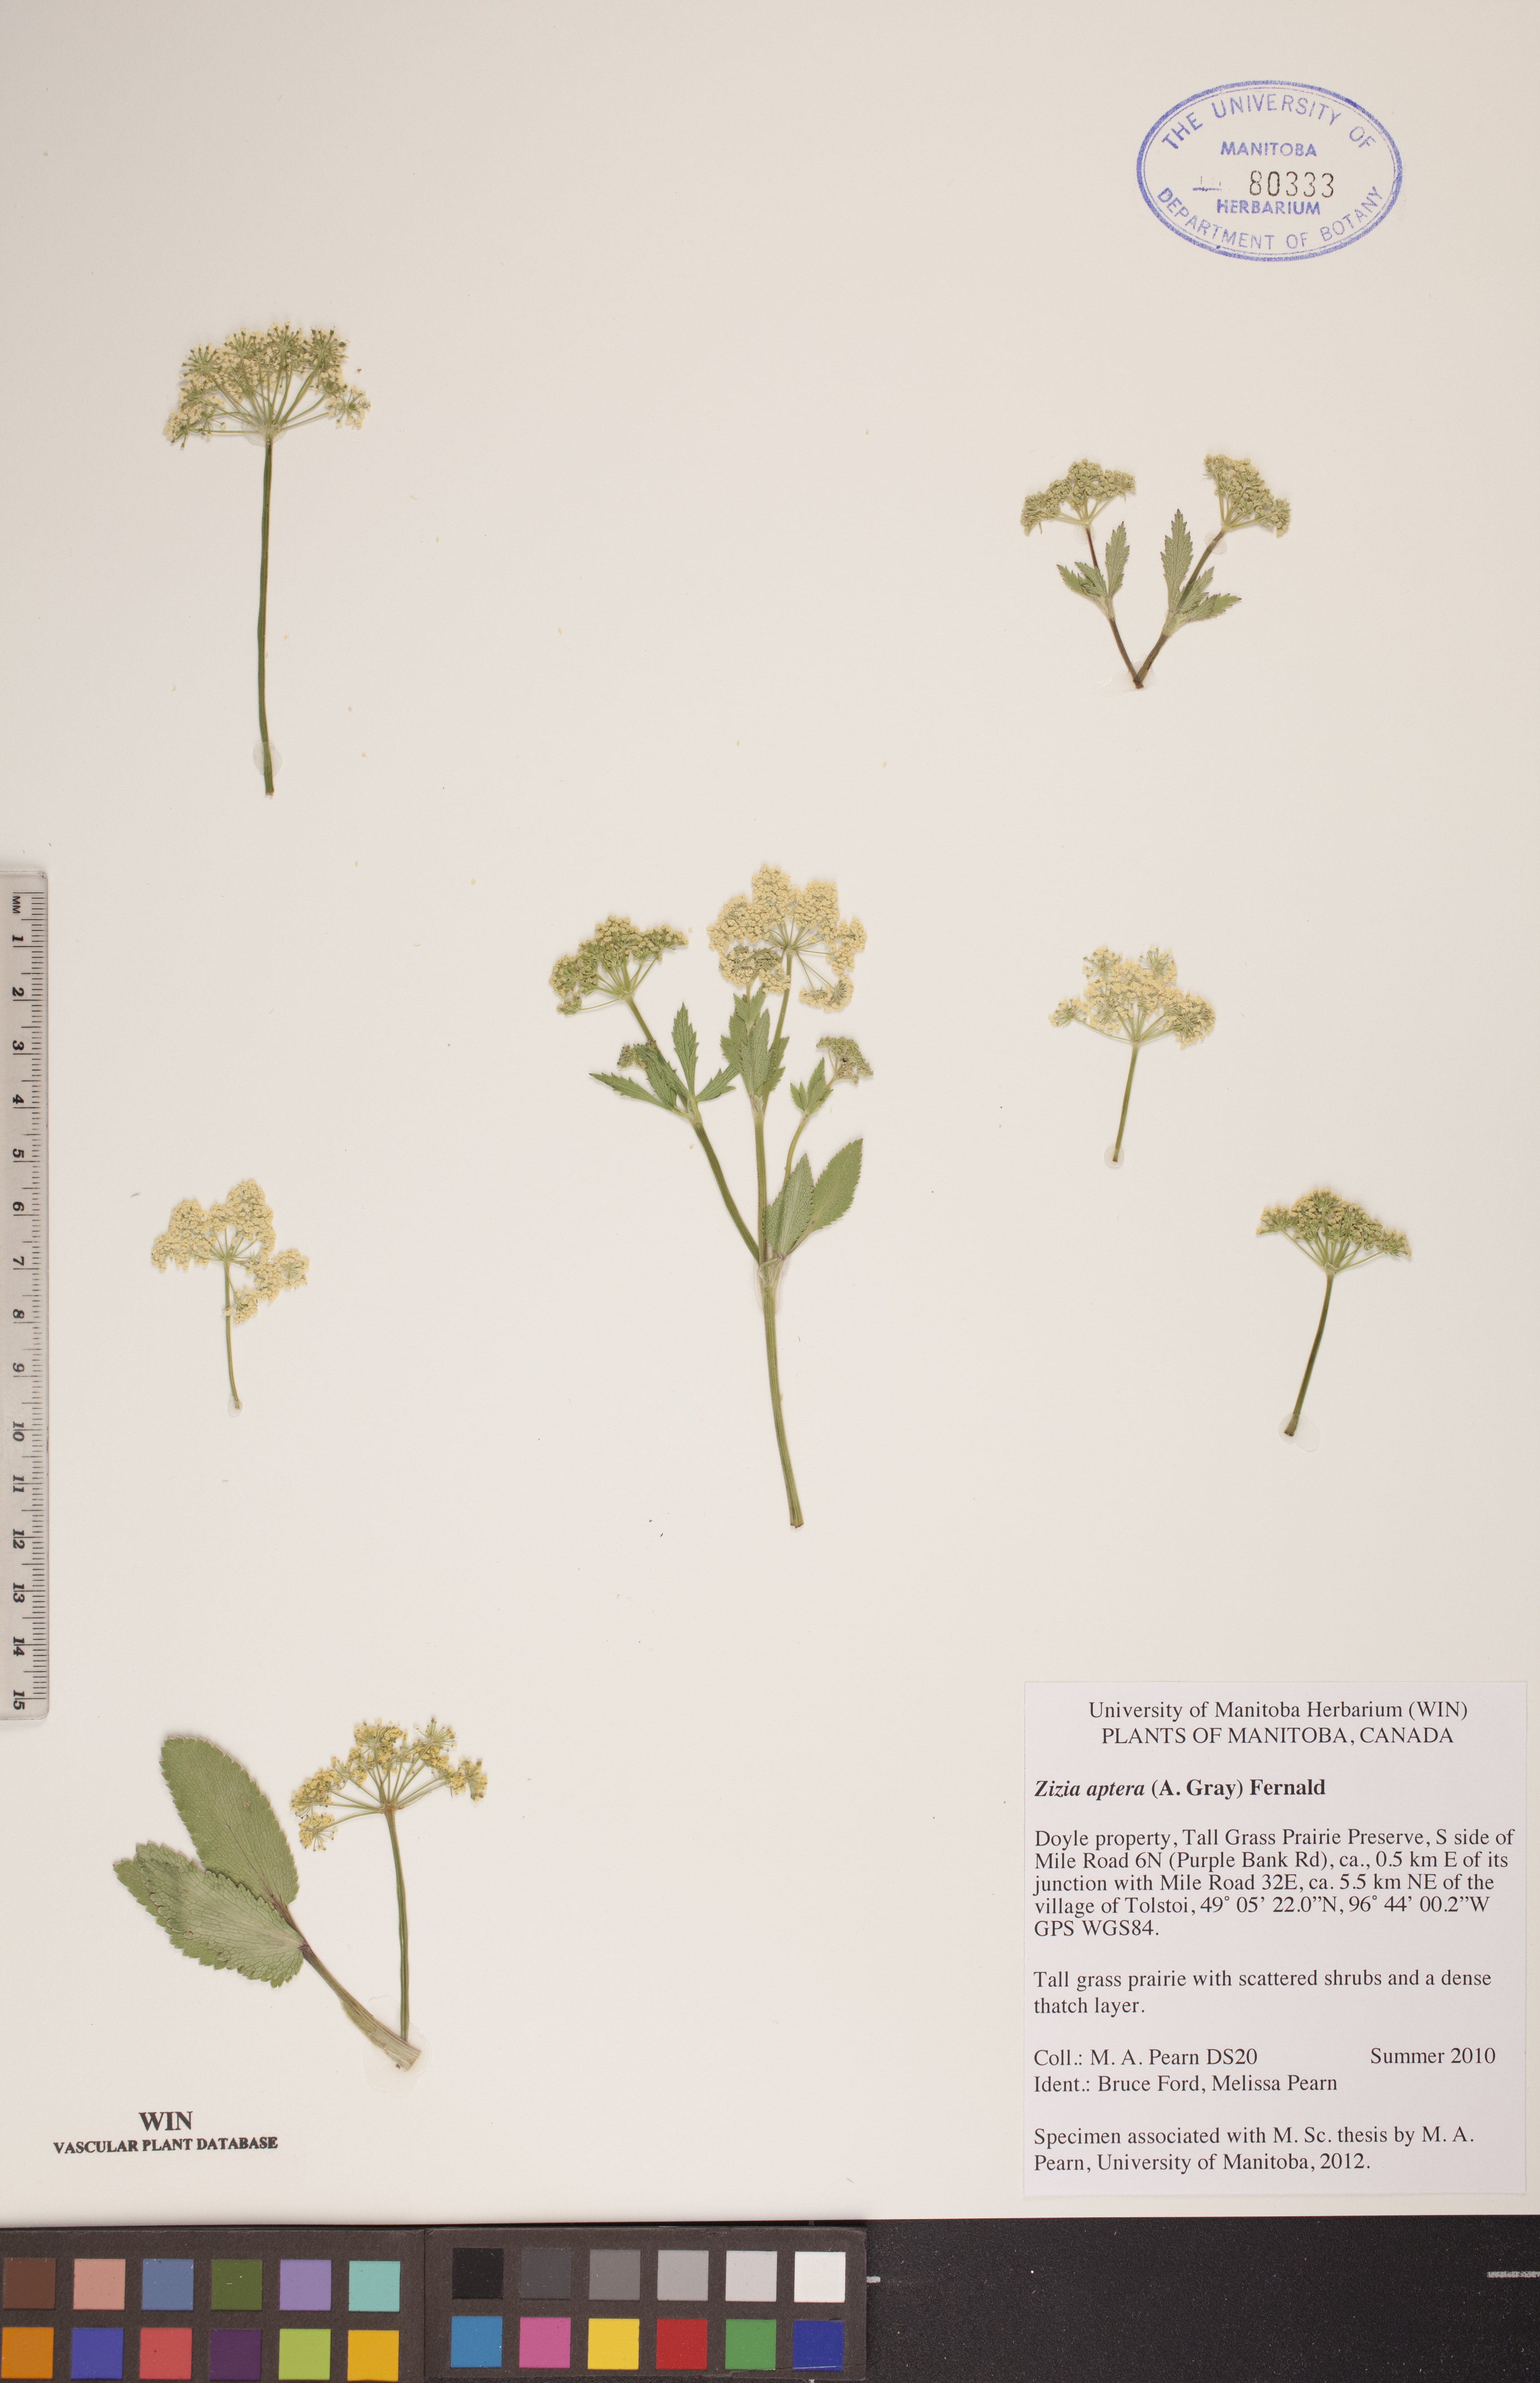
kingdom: Plantae
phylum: Tracheophyta
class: Magnoliopsida
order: Apiales
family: Apiaceae
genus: Zizia
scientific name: Zizia aptera
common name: Heart-leaved alexanders
